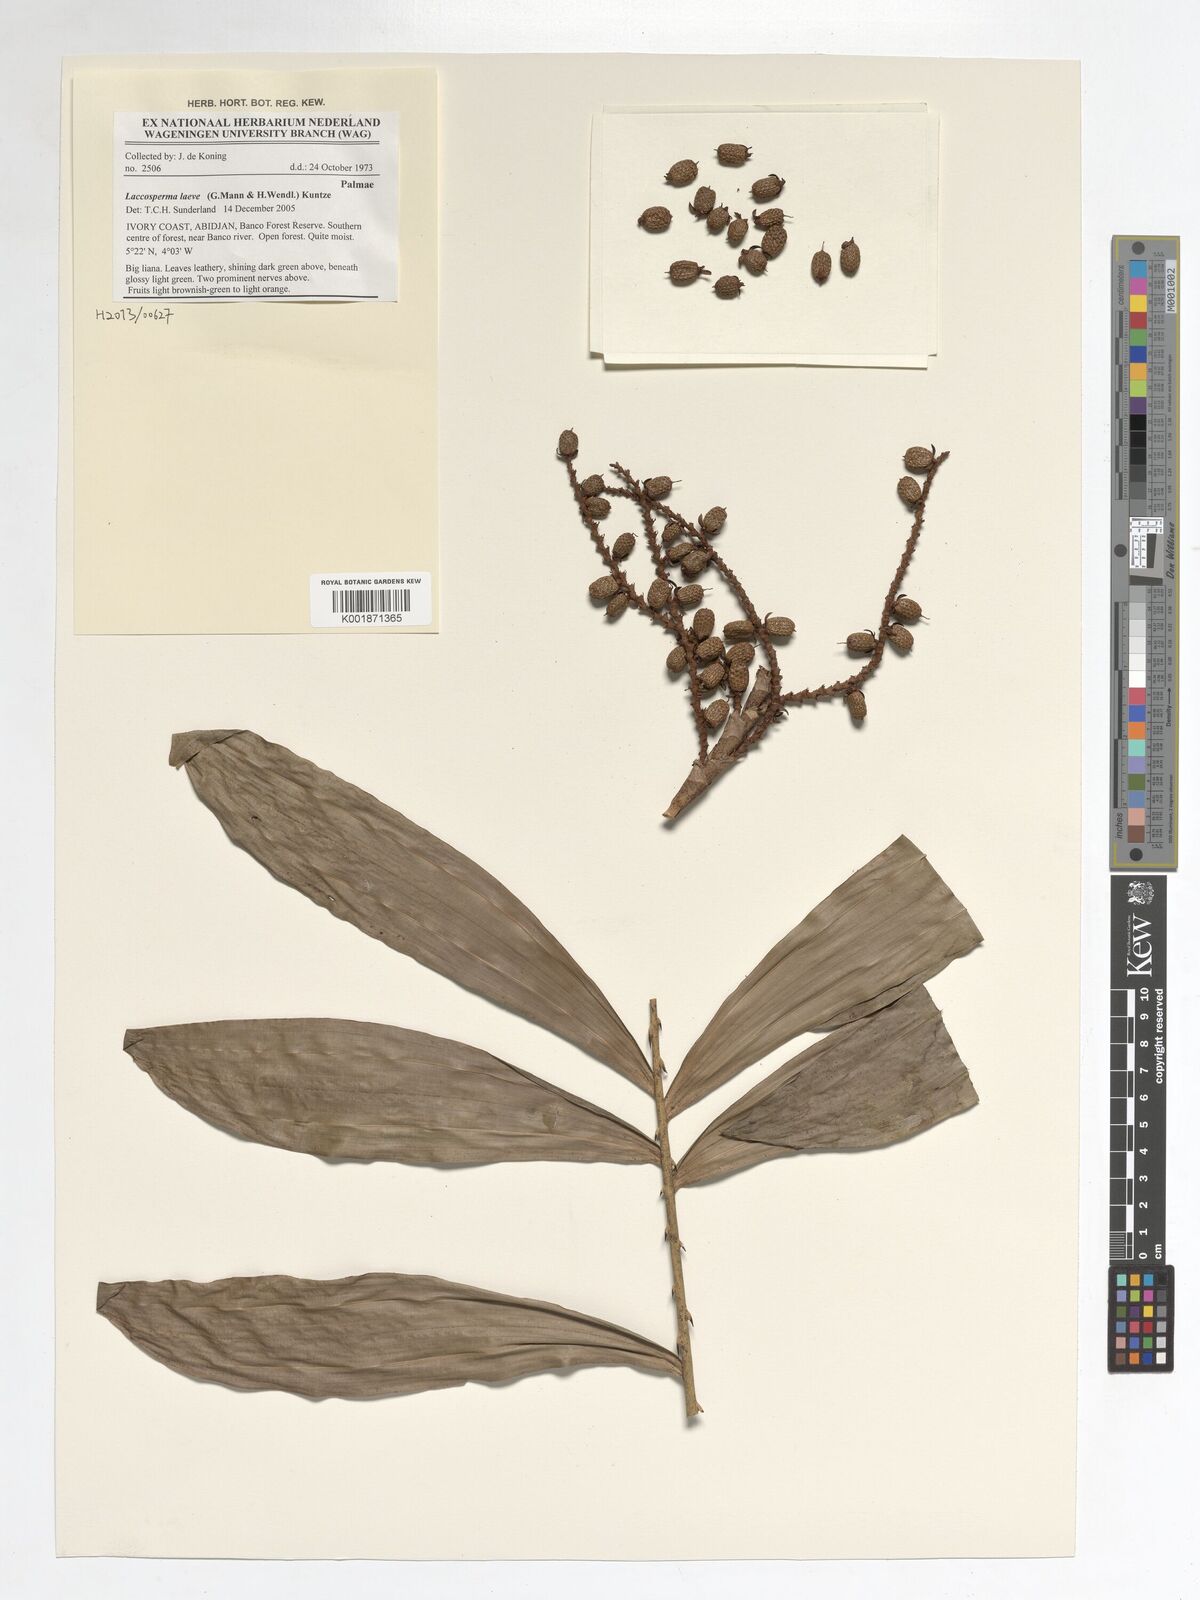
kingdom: Plantae
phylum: Tracheophyta
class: Liliopsida
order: Arecales
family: Arecaceae
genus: Laccosperma
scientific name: Laccosperma laeve
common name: Rattan
